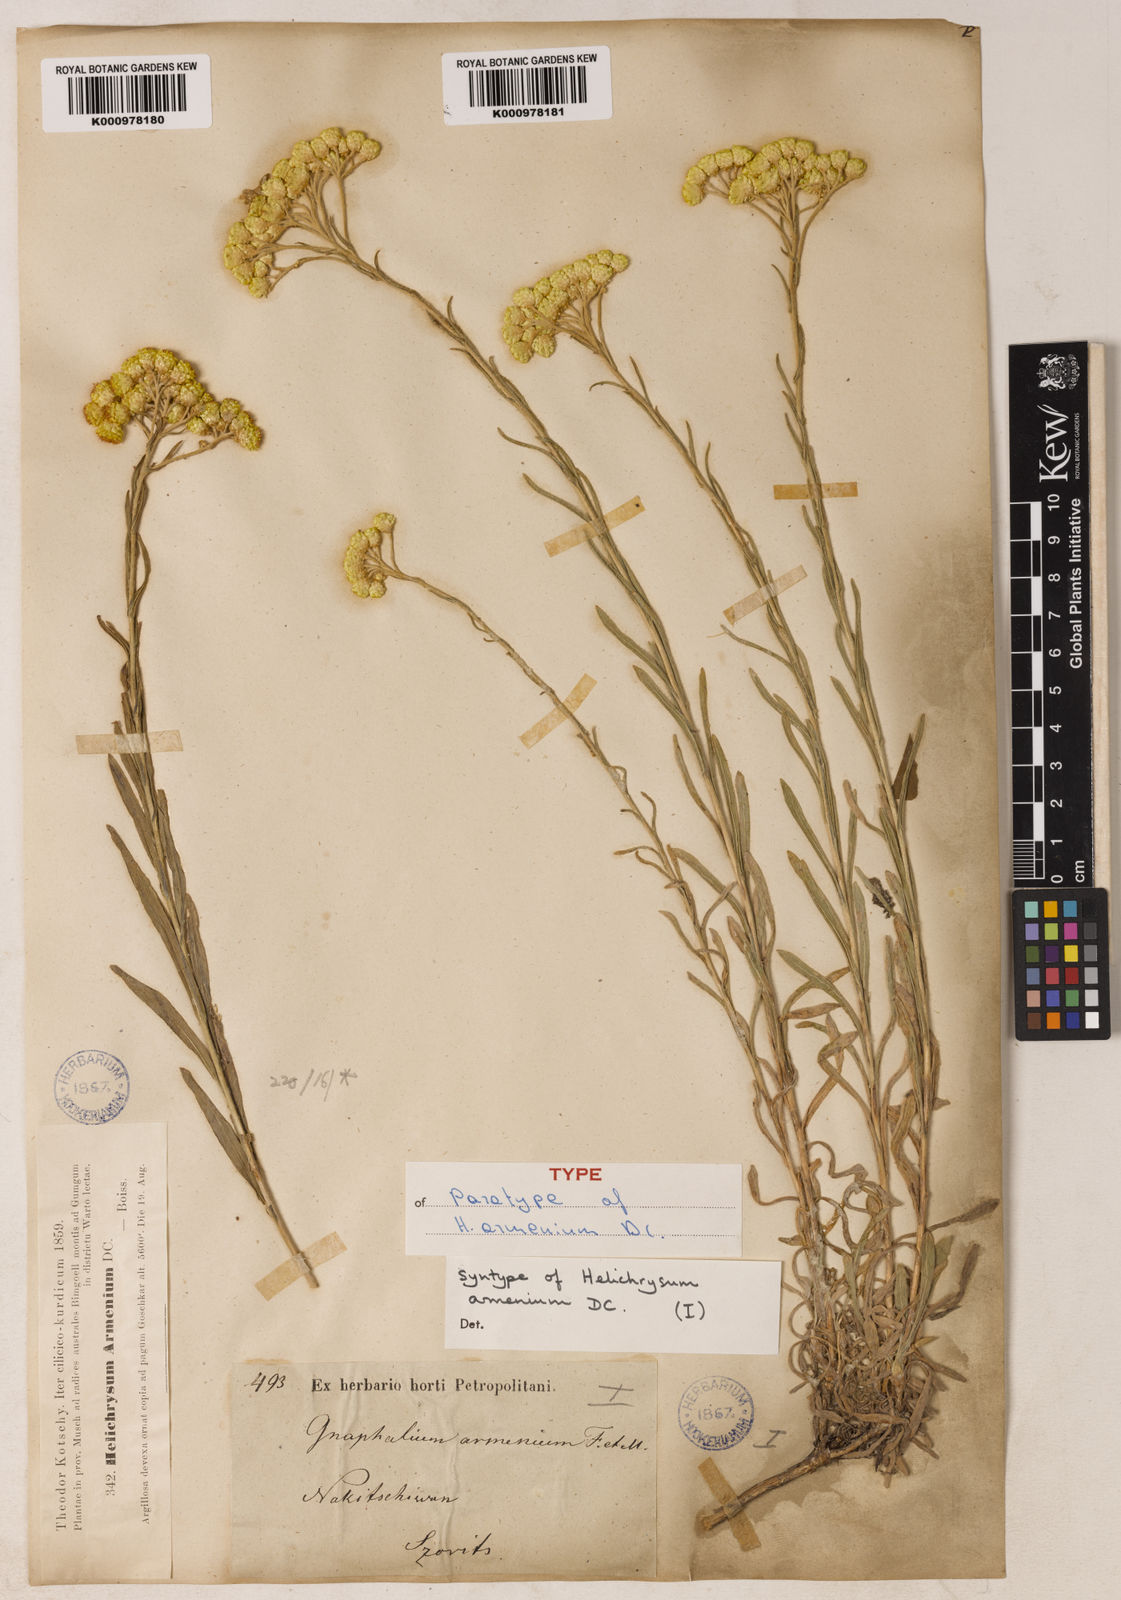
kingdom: Plantae
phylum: Tracheophyta
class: Magnoliopsida
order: Asterales
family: Asteraceae
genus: Helichrysum
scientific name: Helichrysum armenium
